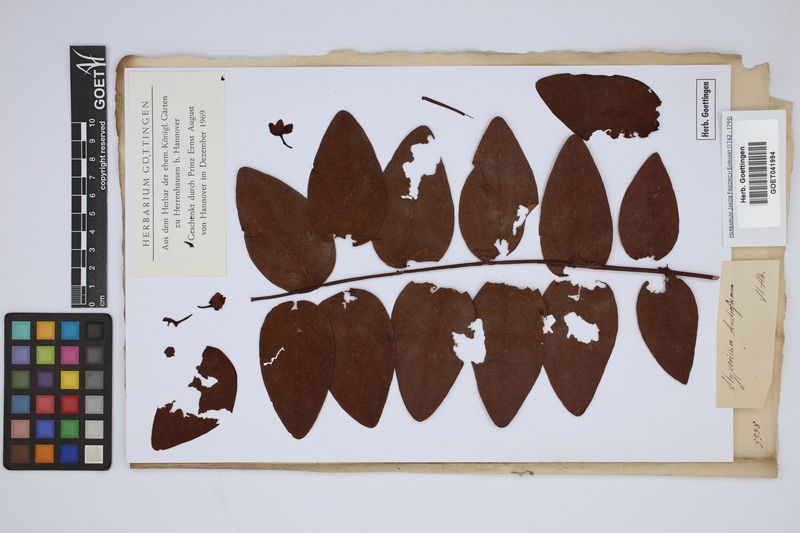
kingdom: Plantae
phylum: Tracheophyta
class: Magnoliopsida
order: Malpighiales
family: Hypericaceae
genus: Hypericum
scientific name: Hypericum androsaemum
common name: Sweet-amber
